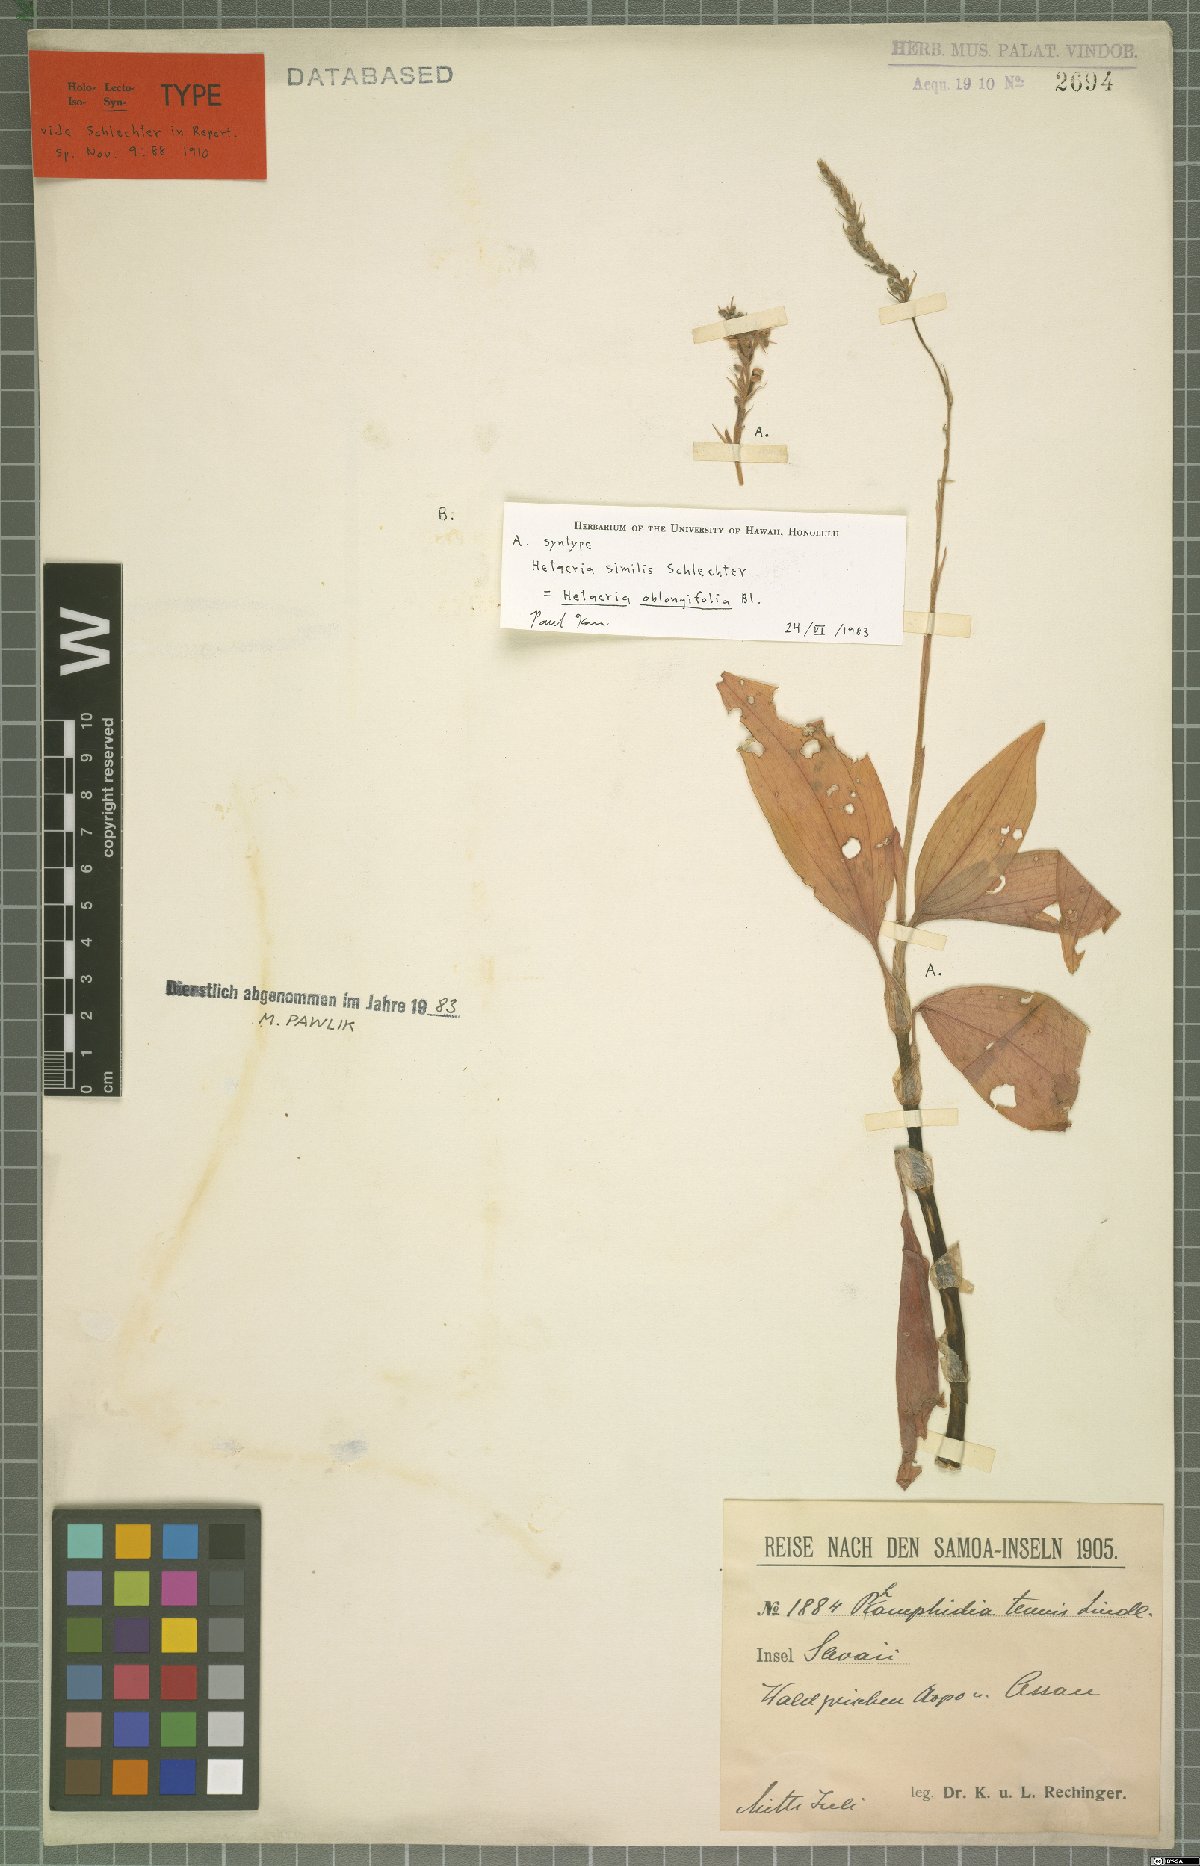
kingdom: Plantae
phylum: Tracheophyta
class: Liliopsida
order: Asparagales
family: Orchidaceae
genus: Hetaeria
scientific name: Hetaeria oblongifolia
